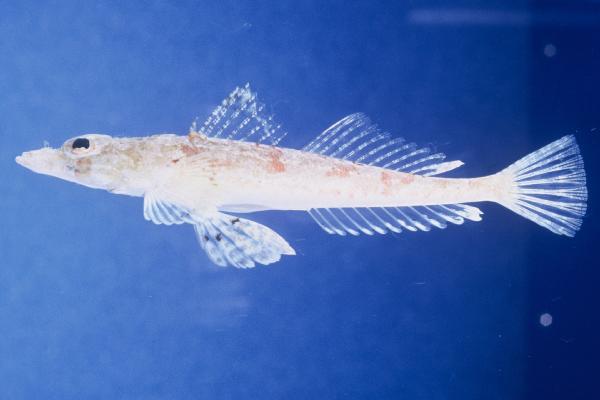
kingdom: Animalia
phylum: Chordata
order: Scorpaeniformes
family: Platycephalidae
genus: Thysanophrys
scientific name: Thysanophrys chiltonae
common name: Longsnout flathead
